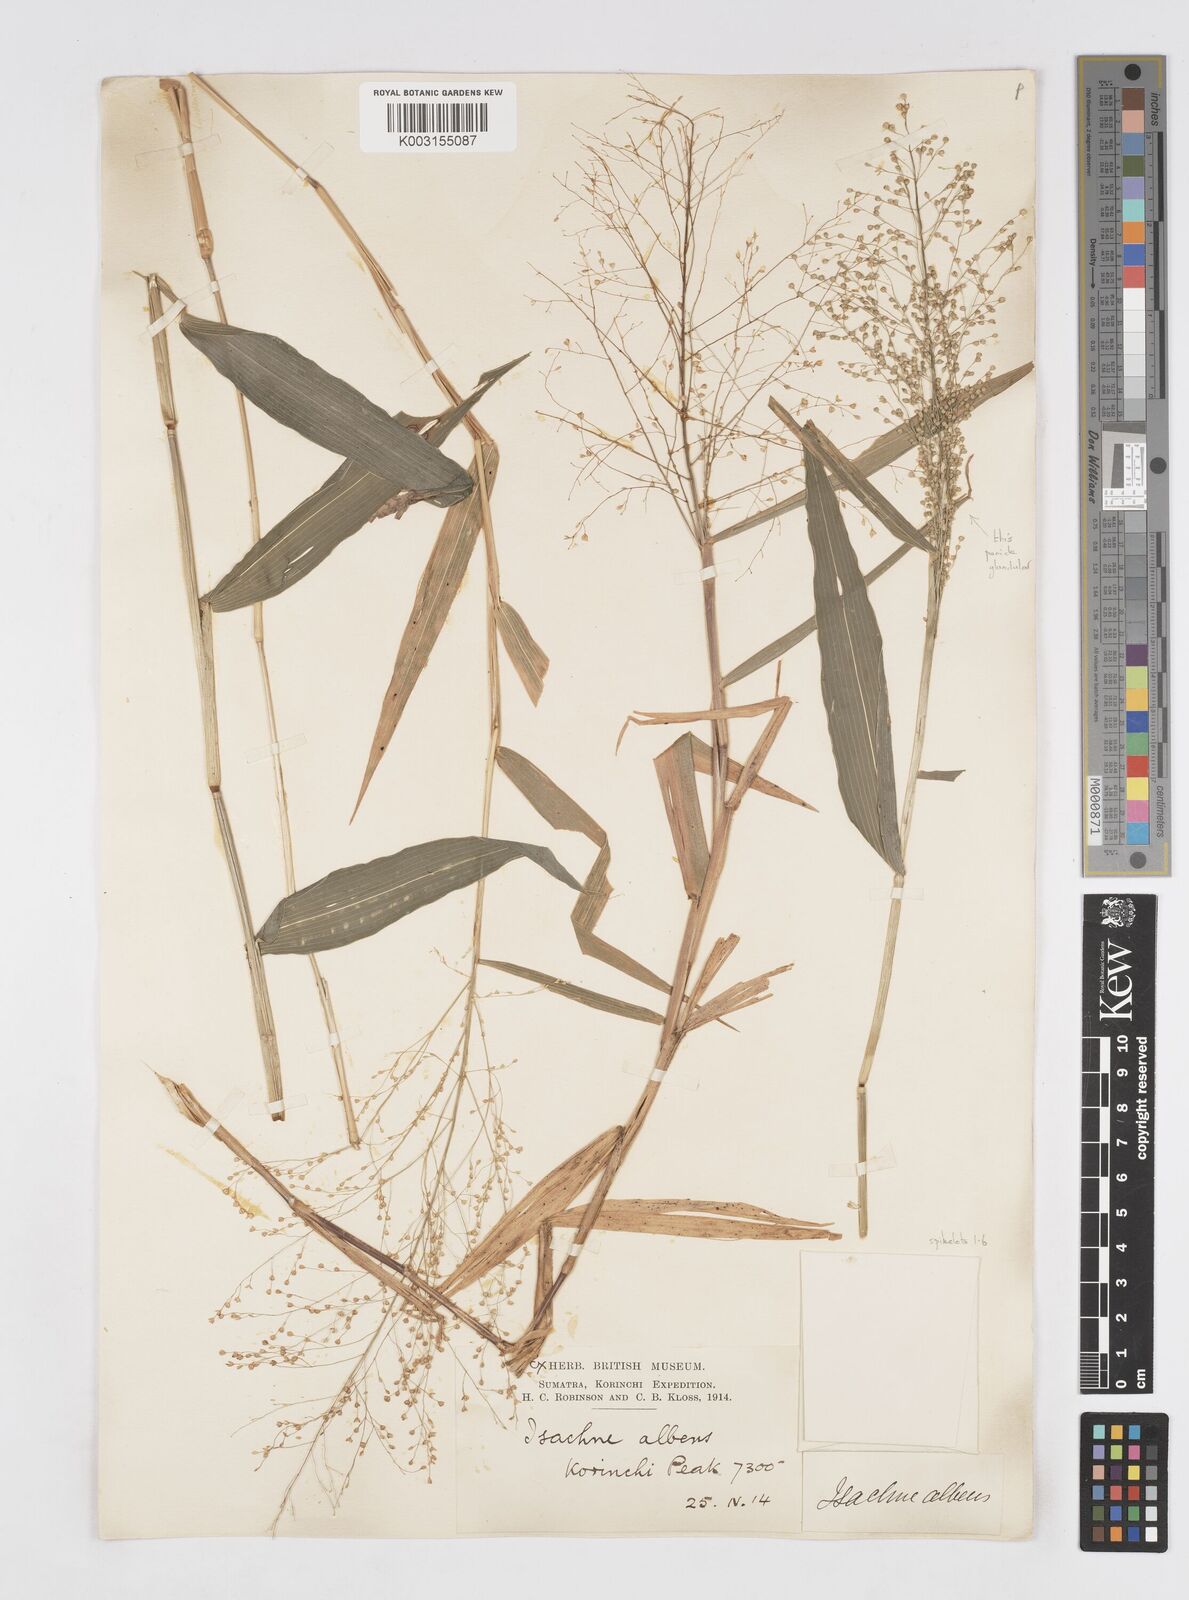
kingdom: Plantae
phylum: Tracheophyta
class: Liliopsida
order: Poales
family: Poaceae
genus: Isachne
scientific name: Isachne sylvestris
